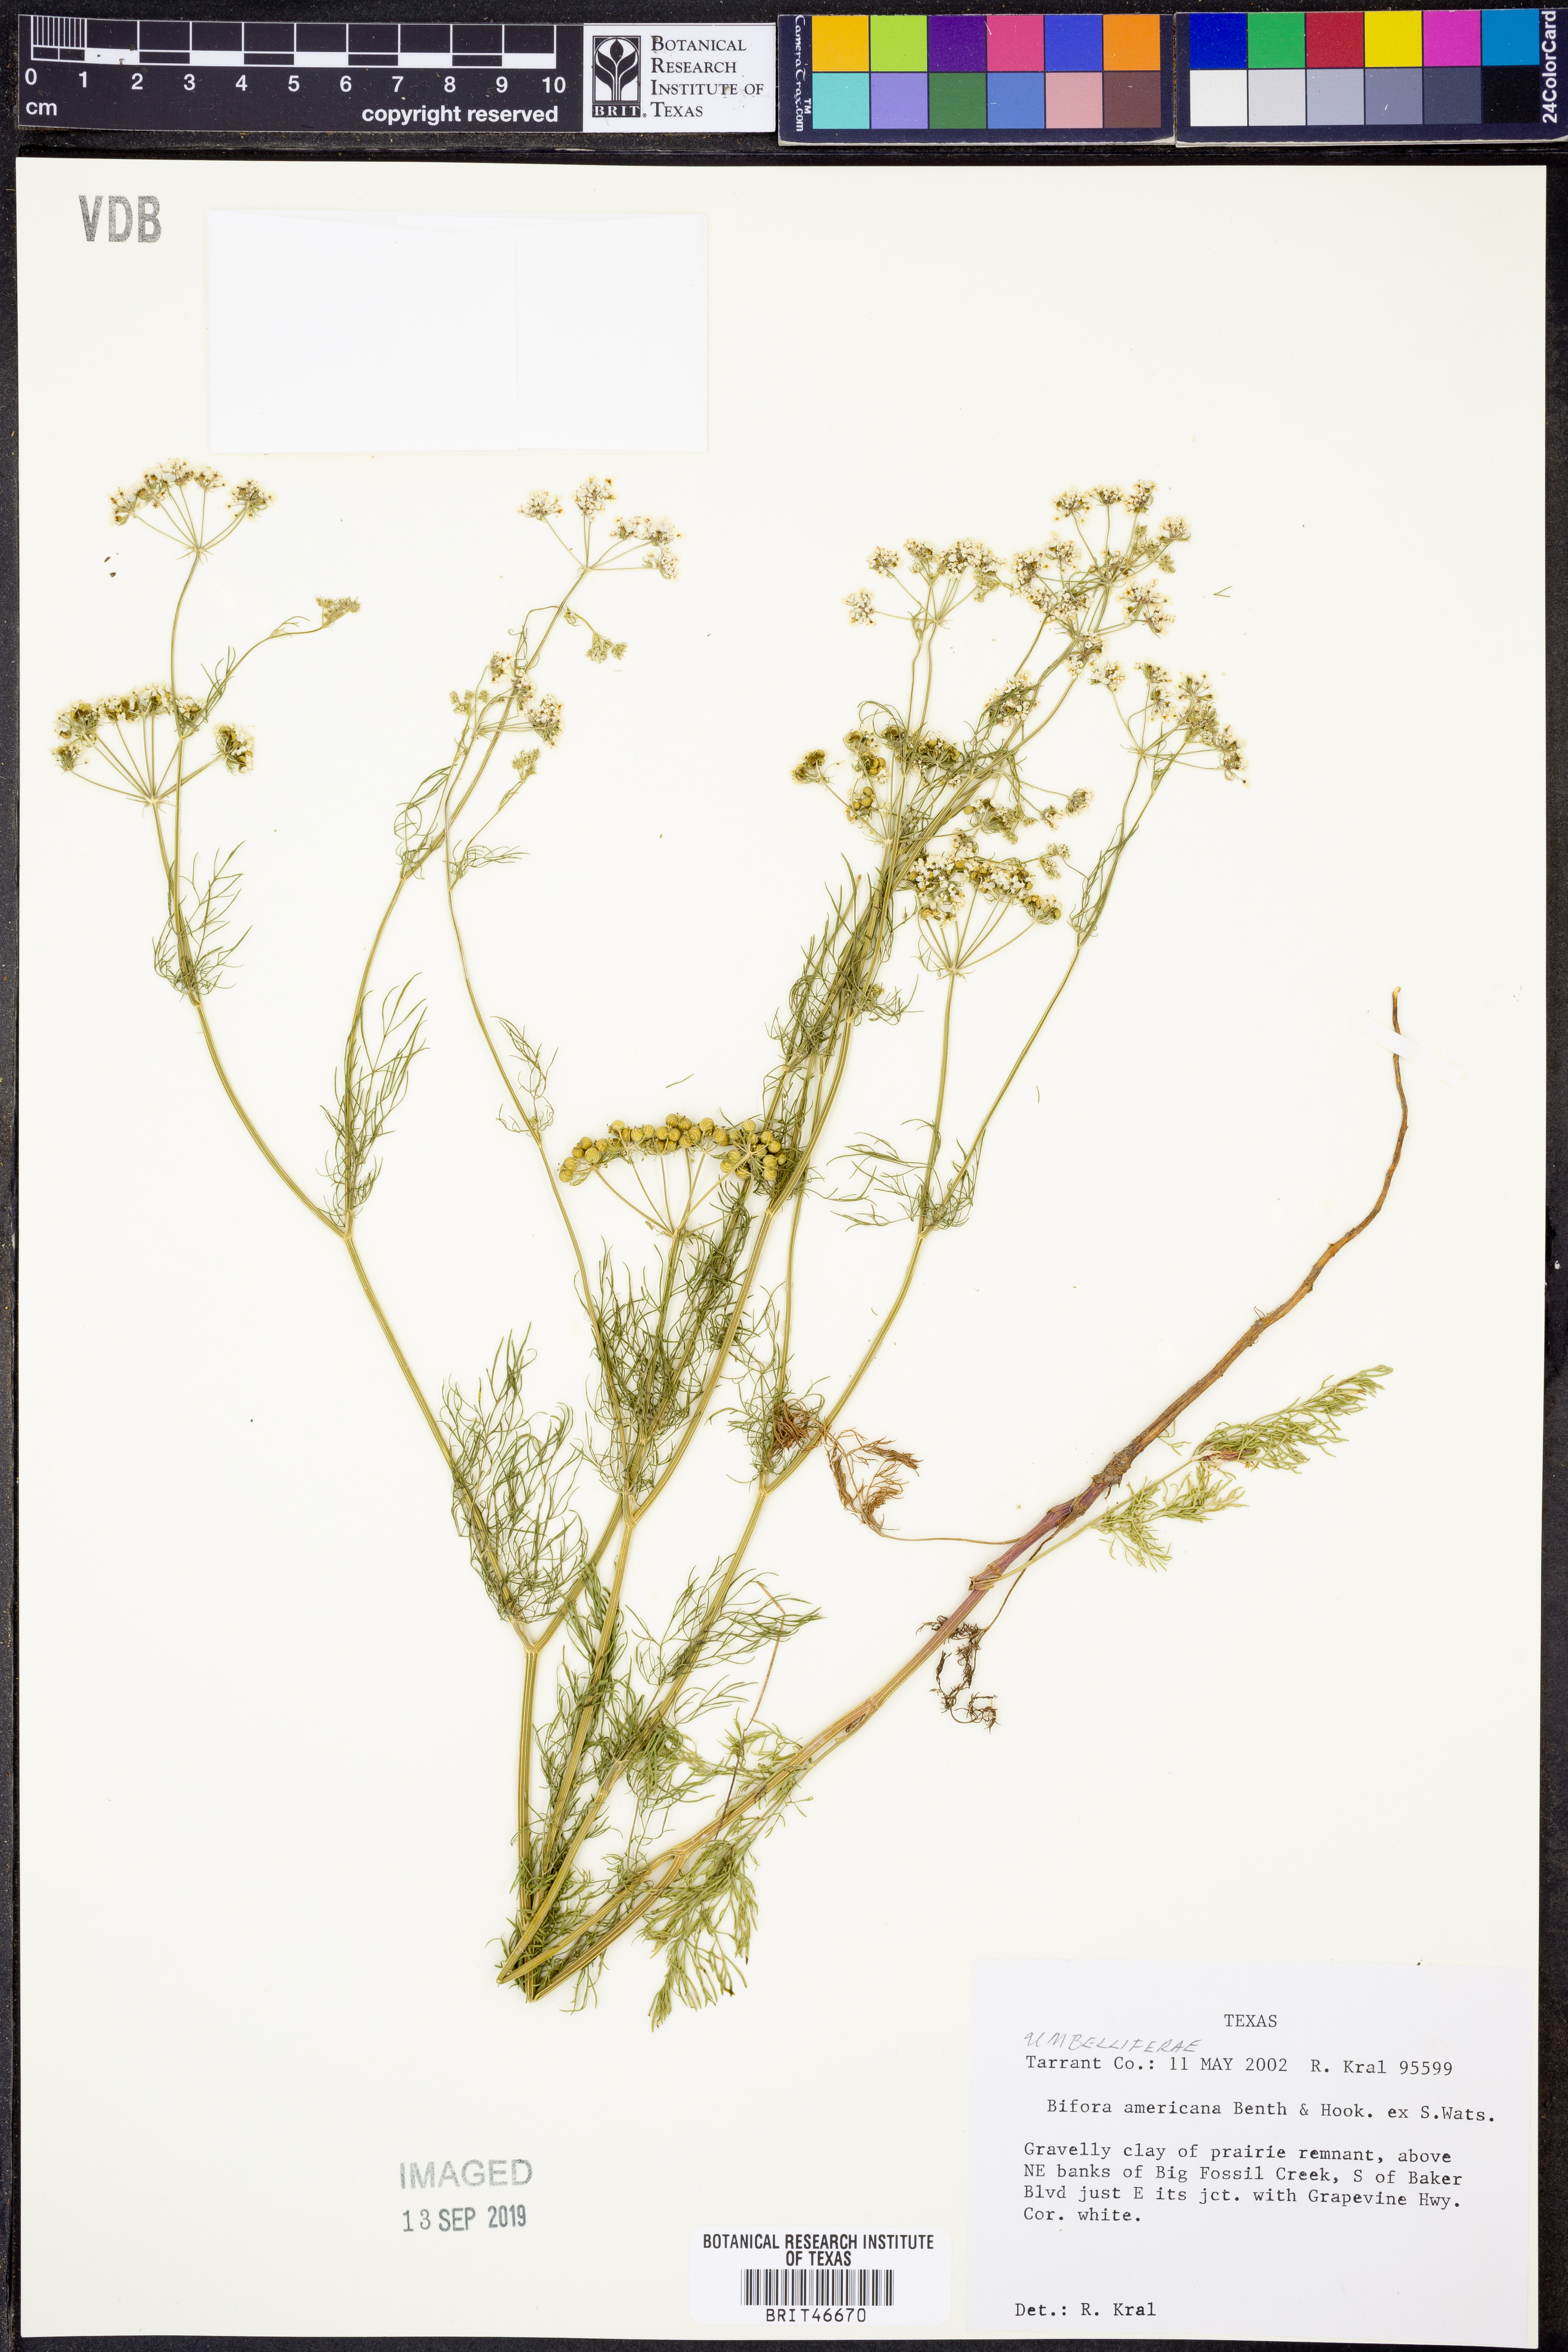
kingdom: Plantae
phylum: Tracheophyta
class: Magnoliopsida
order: Apiales
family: Apiaceae
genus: Atrema
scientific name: Atrema americanum
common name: Prairie-bishop
